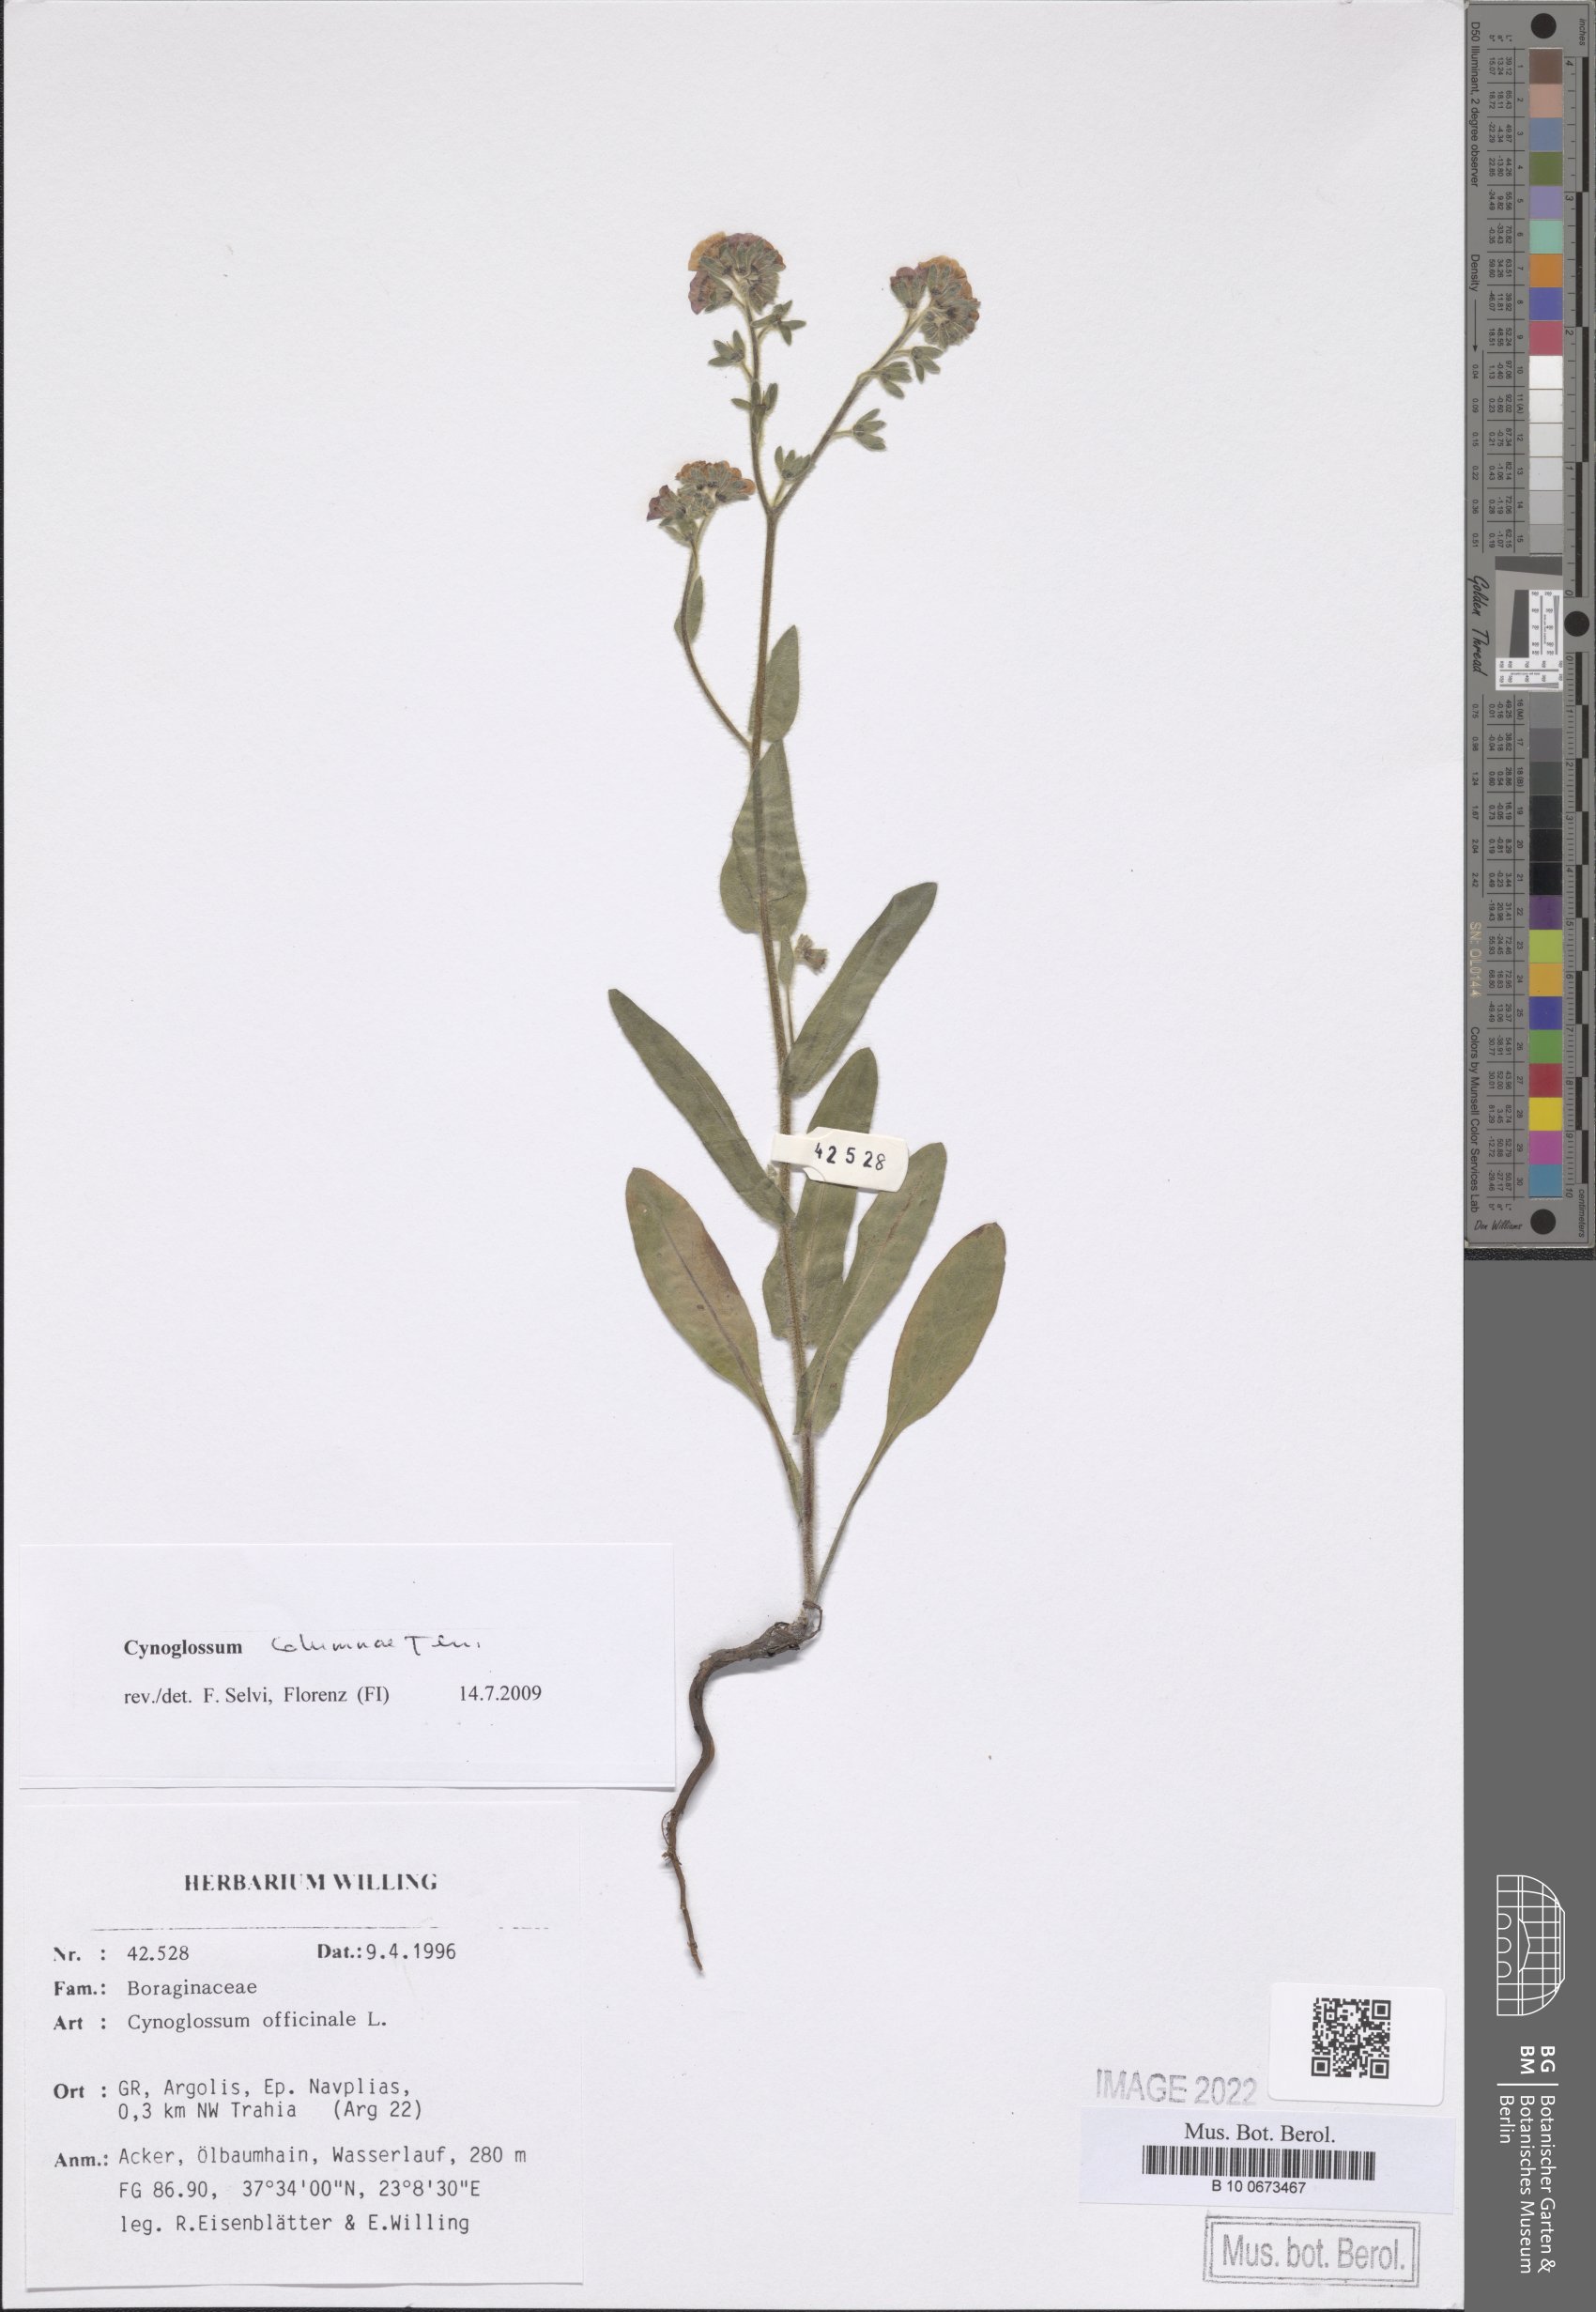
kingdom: Plantae
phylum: Tracheophyta
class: Magnoliopsida
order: Boraginales
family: Boraginaceae
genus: Rindera
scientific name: Rindera columnae
